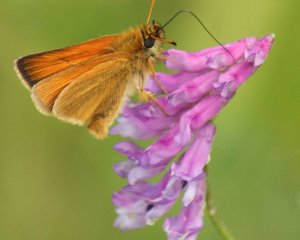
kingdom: Animalia
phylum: Arthropoda
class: Insecta
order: Lepidoptera
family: Hesperiidae
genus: Thymelicus
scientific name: Thymelicus lineola
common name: European Skipper
